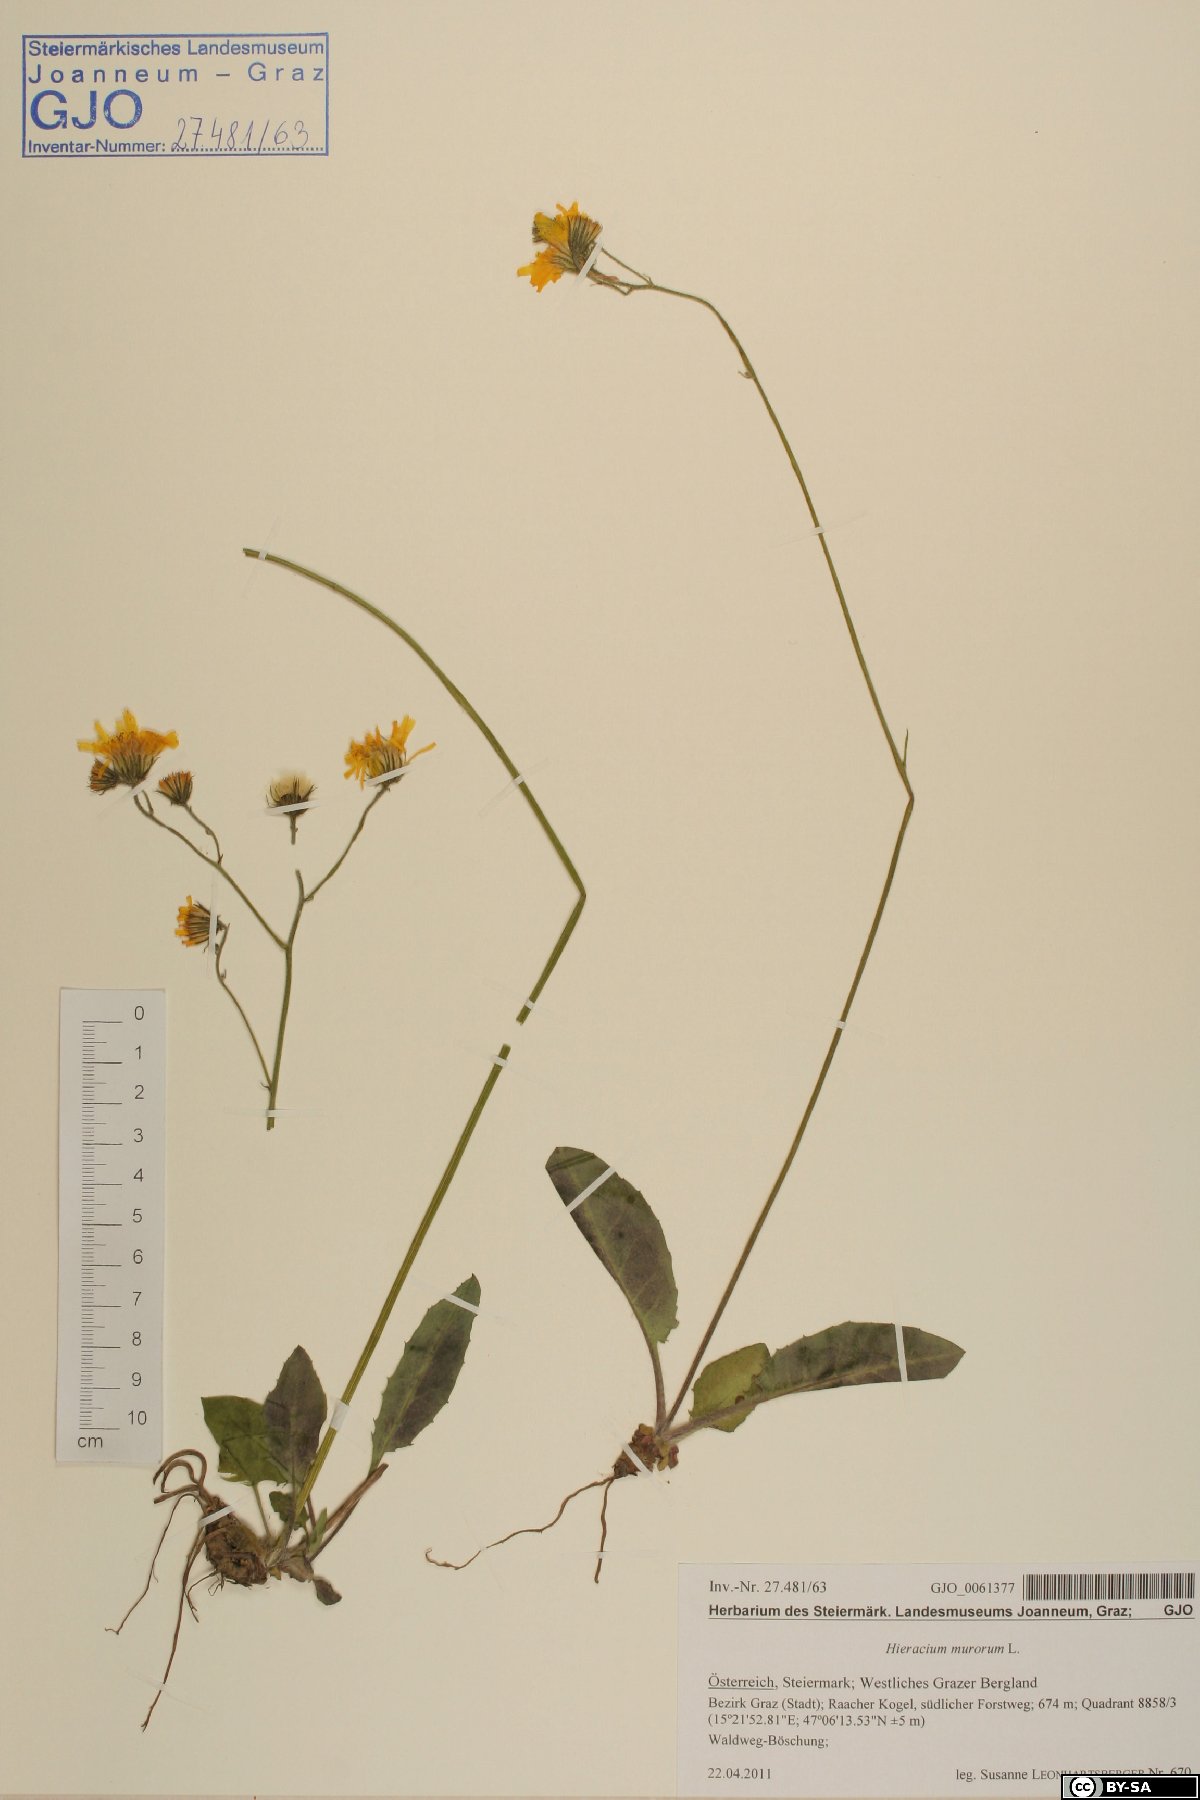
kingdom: Plantae
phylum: Tracheophyta
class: Magnoliopsida
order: Asterales
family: Asteraceae
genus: Hieracium
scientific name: Hieracium murorum
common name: Wall hawkweed
